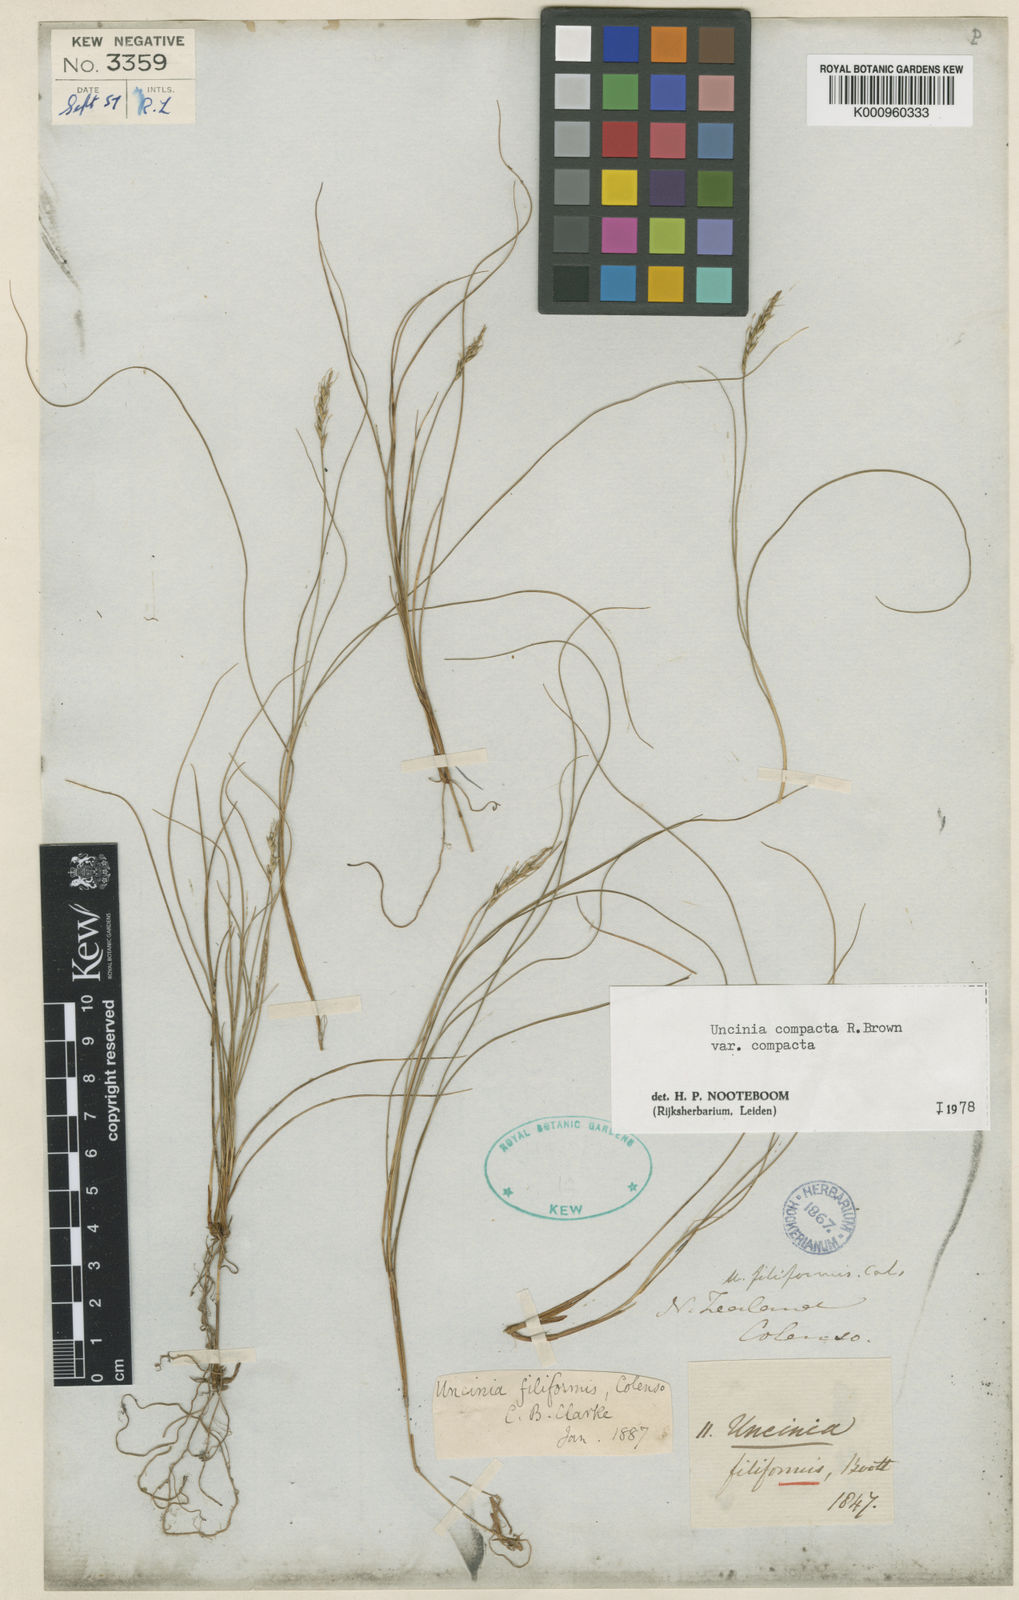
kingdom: Plantae
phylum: Tracheophyta
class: Liliopsida
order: Poales
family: Cyperaceae
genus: Carex
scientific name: Carex lectissima
